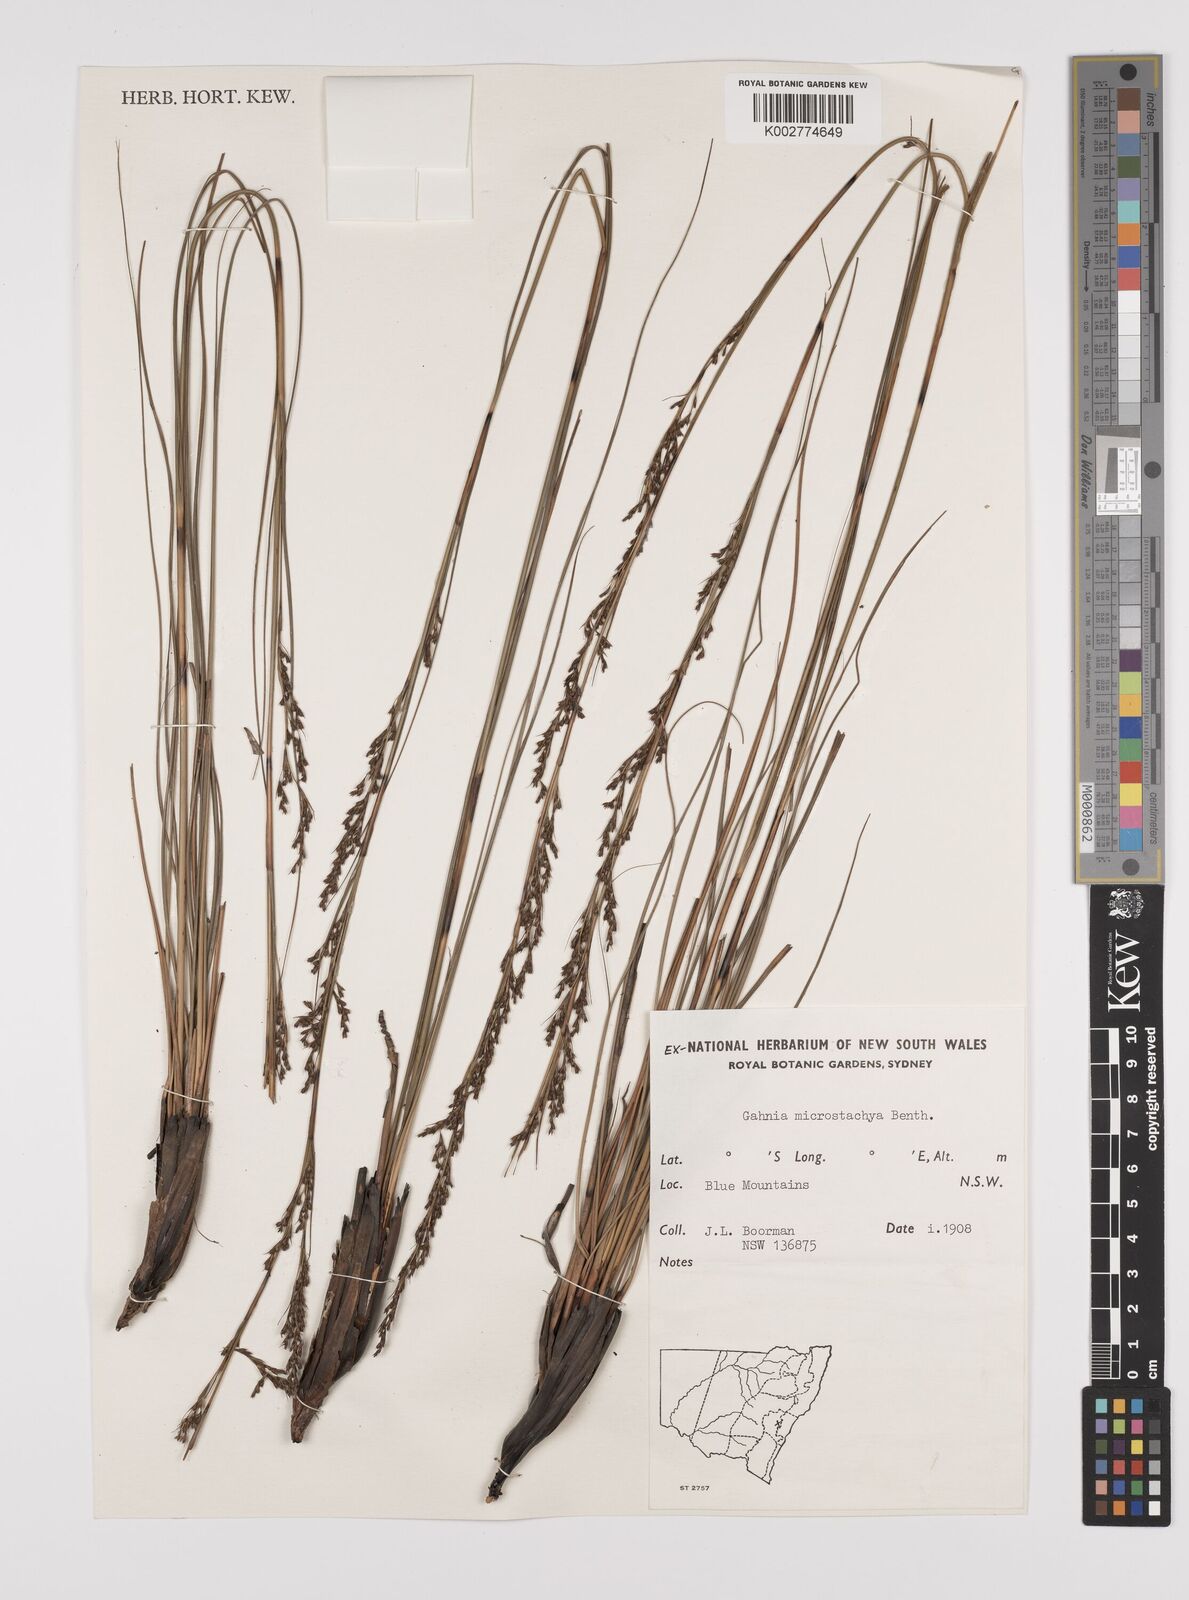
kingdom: Plantae
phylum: Tracheophyta
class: Liliopsida
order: Poales
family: Cyperaceae
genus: Gahnia
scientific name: Gahnia microstachya
